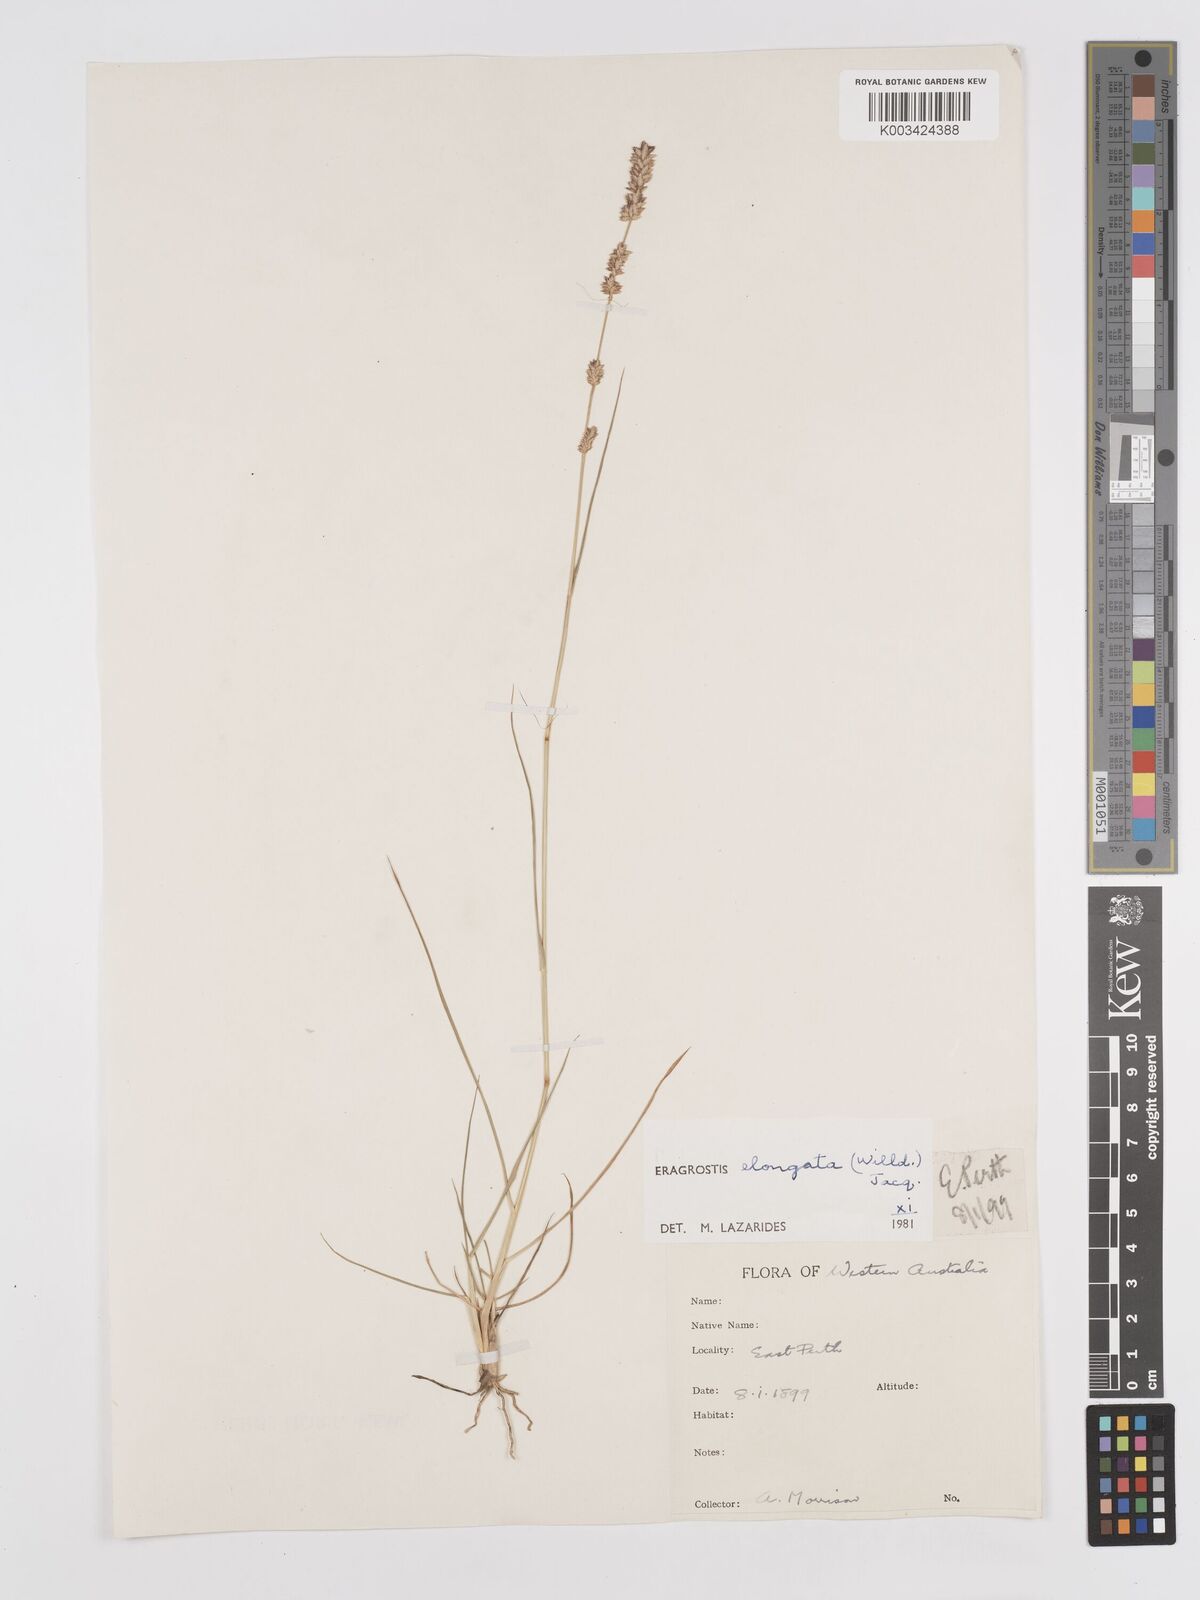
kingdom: Plantae
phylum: Tracheophyta
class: Liliopsida
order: Poales
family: Poaceae
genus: Eragrostis
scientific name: Eragrostis elongata
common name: Long lovegrass
